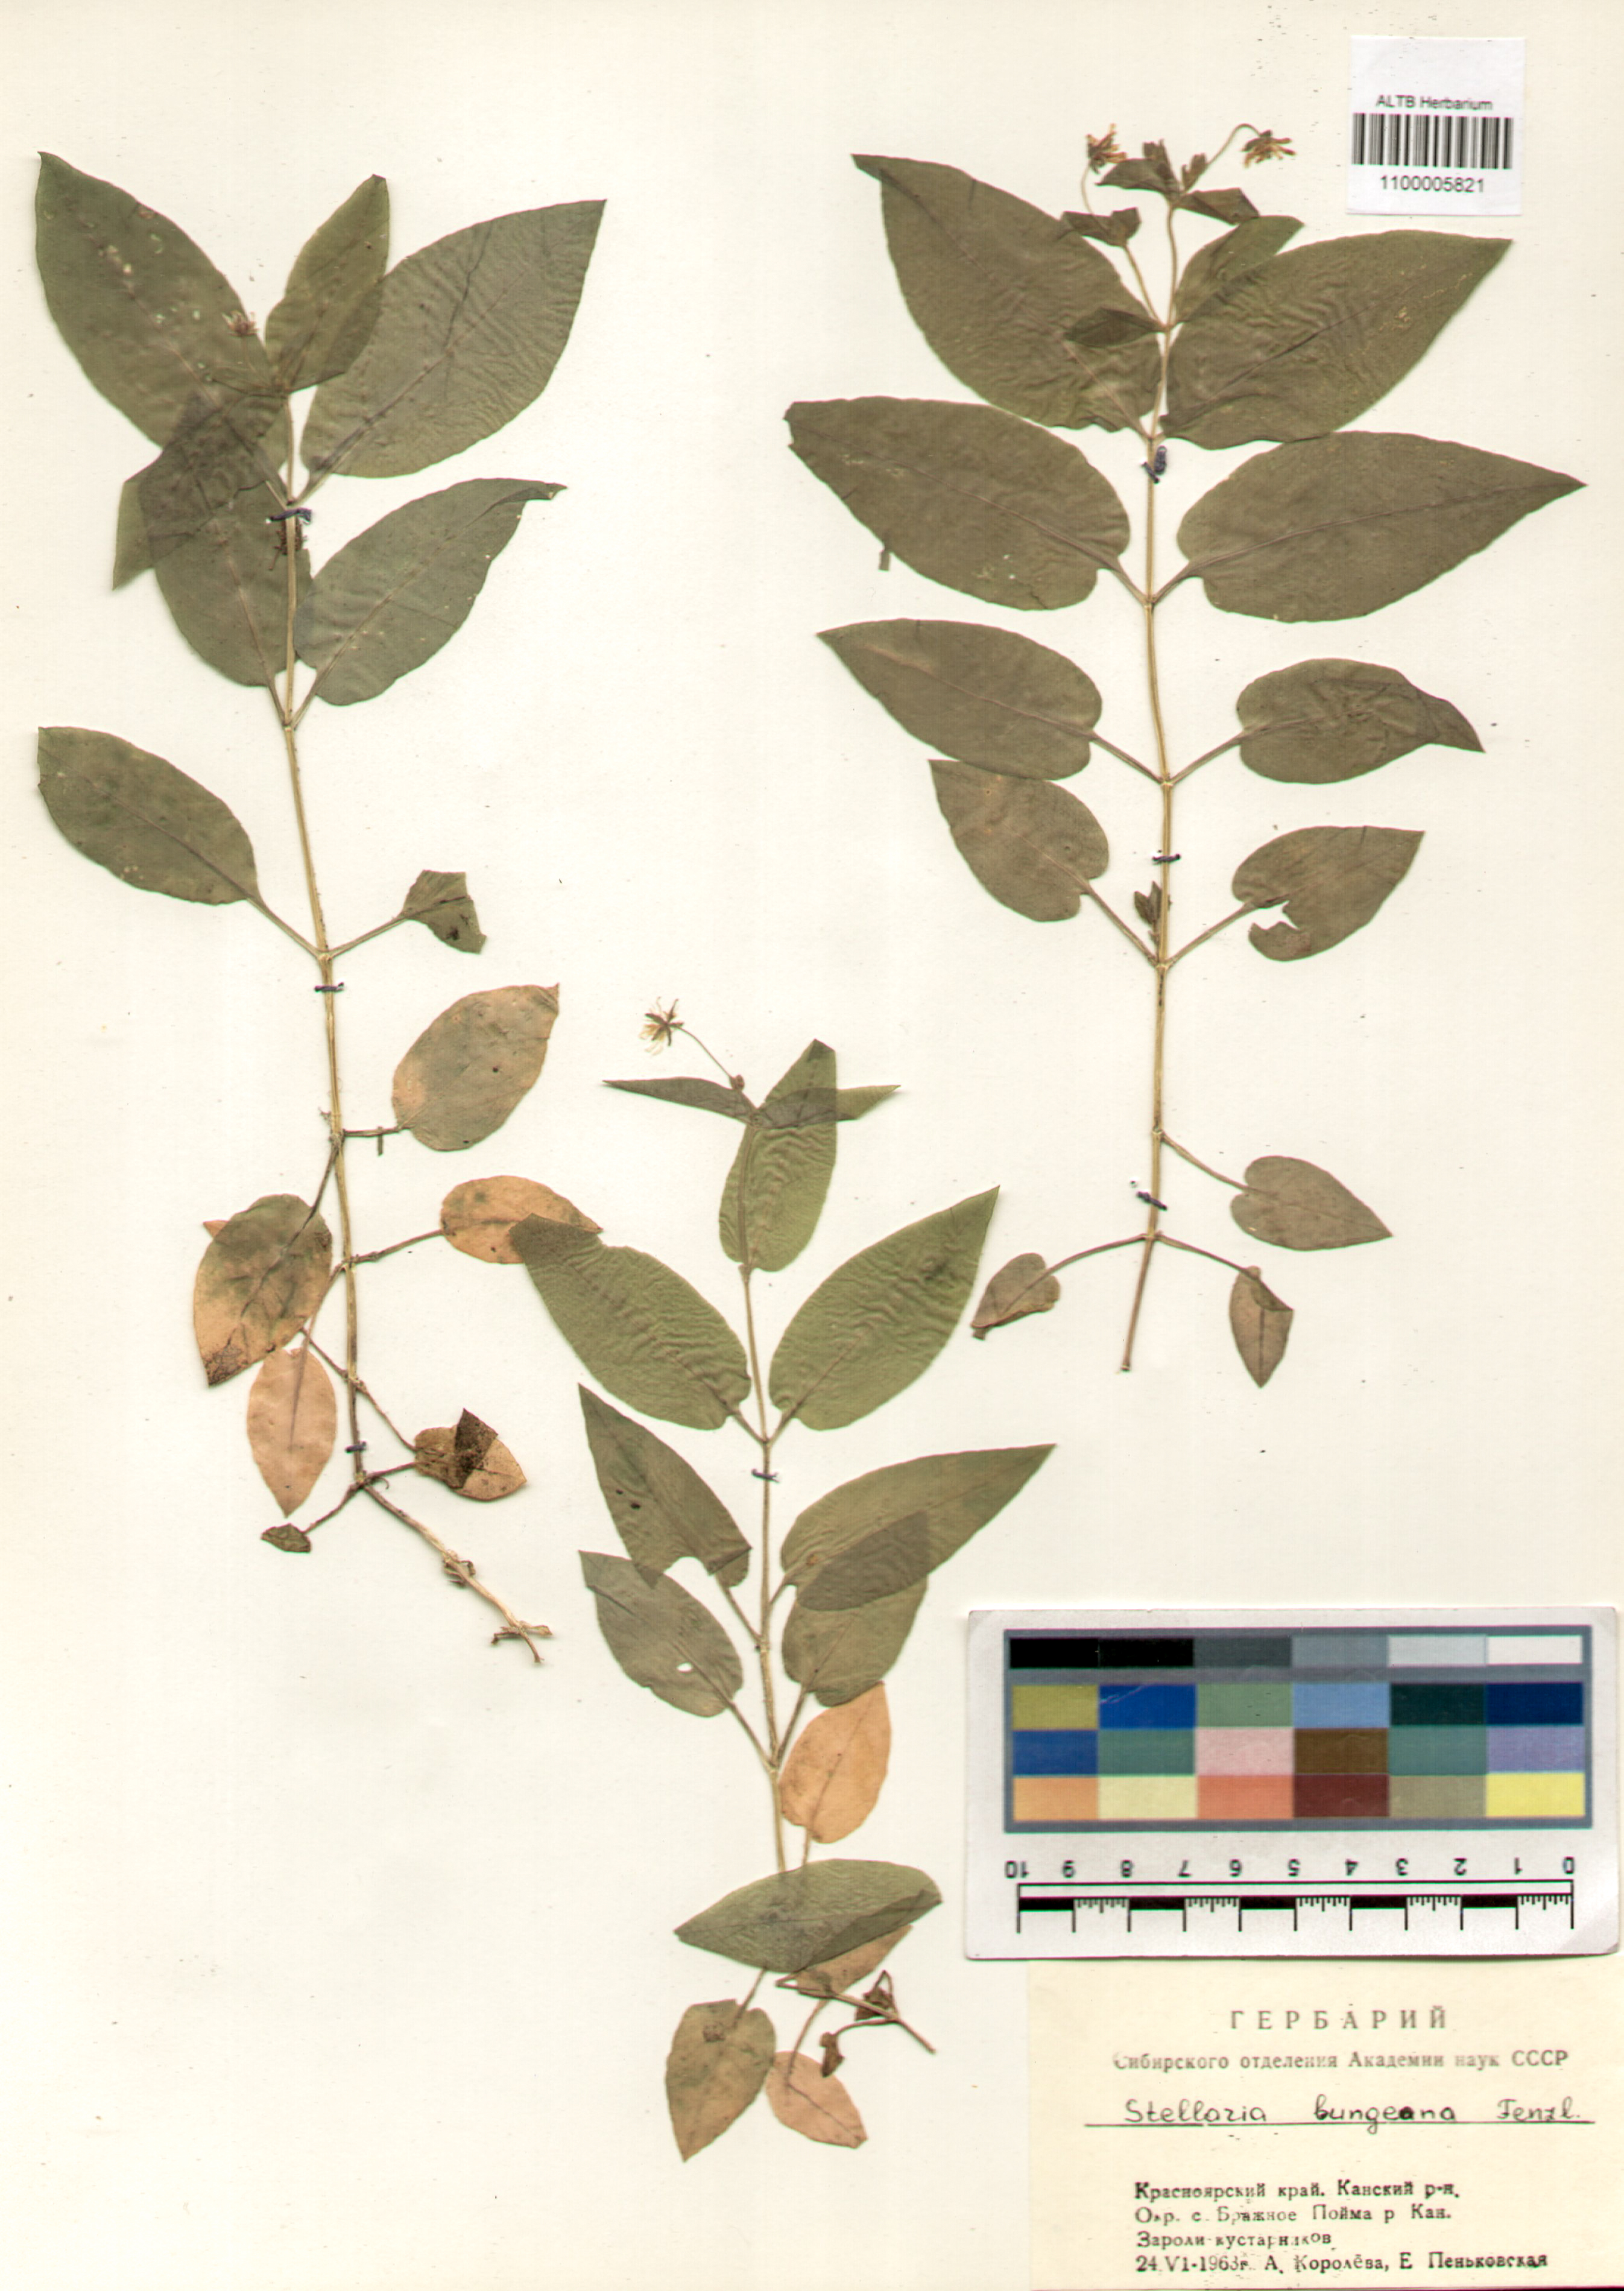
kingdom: Plantae
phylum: Tracheophyta
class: Magnoliopsida
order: Caryophyllales
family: Caryophyllaceae
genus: Stellaria
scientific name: Stellaria bungeana
